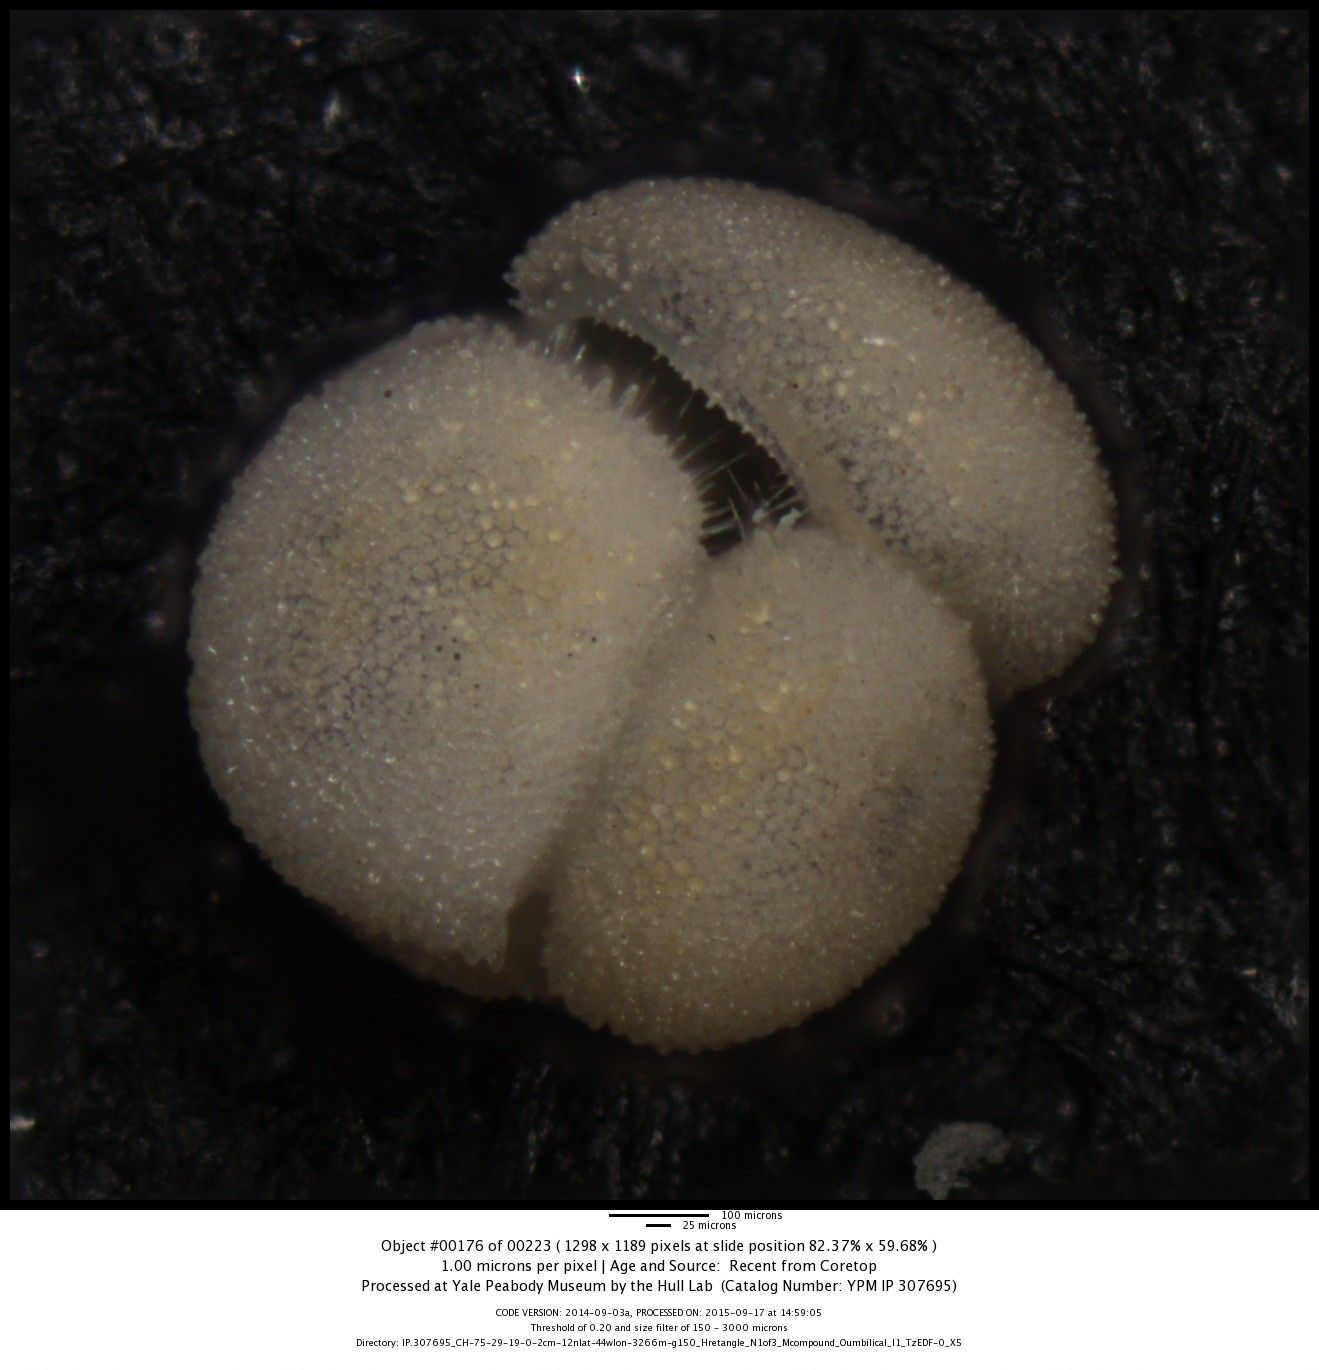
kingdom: Chromista
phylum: Foraminifera
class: Globothalamea
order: Rotaliida
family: Globigerinidae
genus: Globigerinoides
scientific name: Globigerinoides conglobatus
